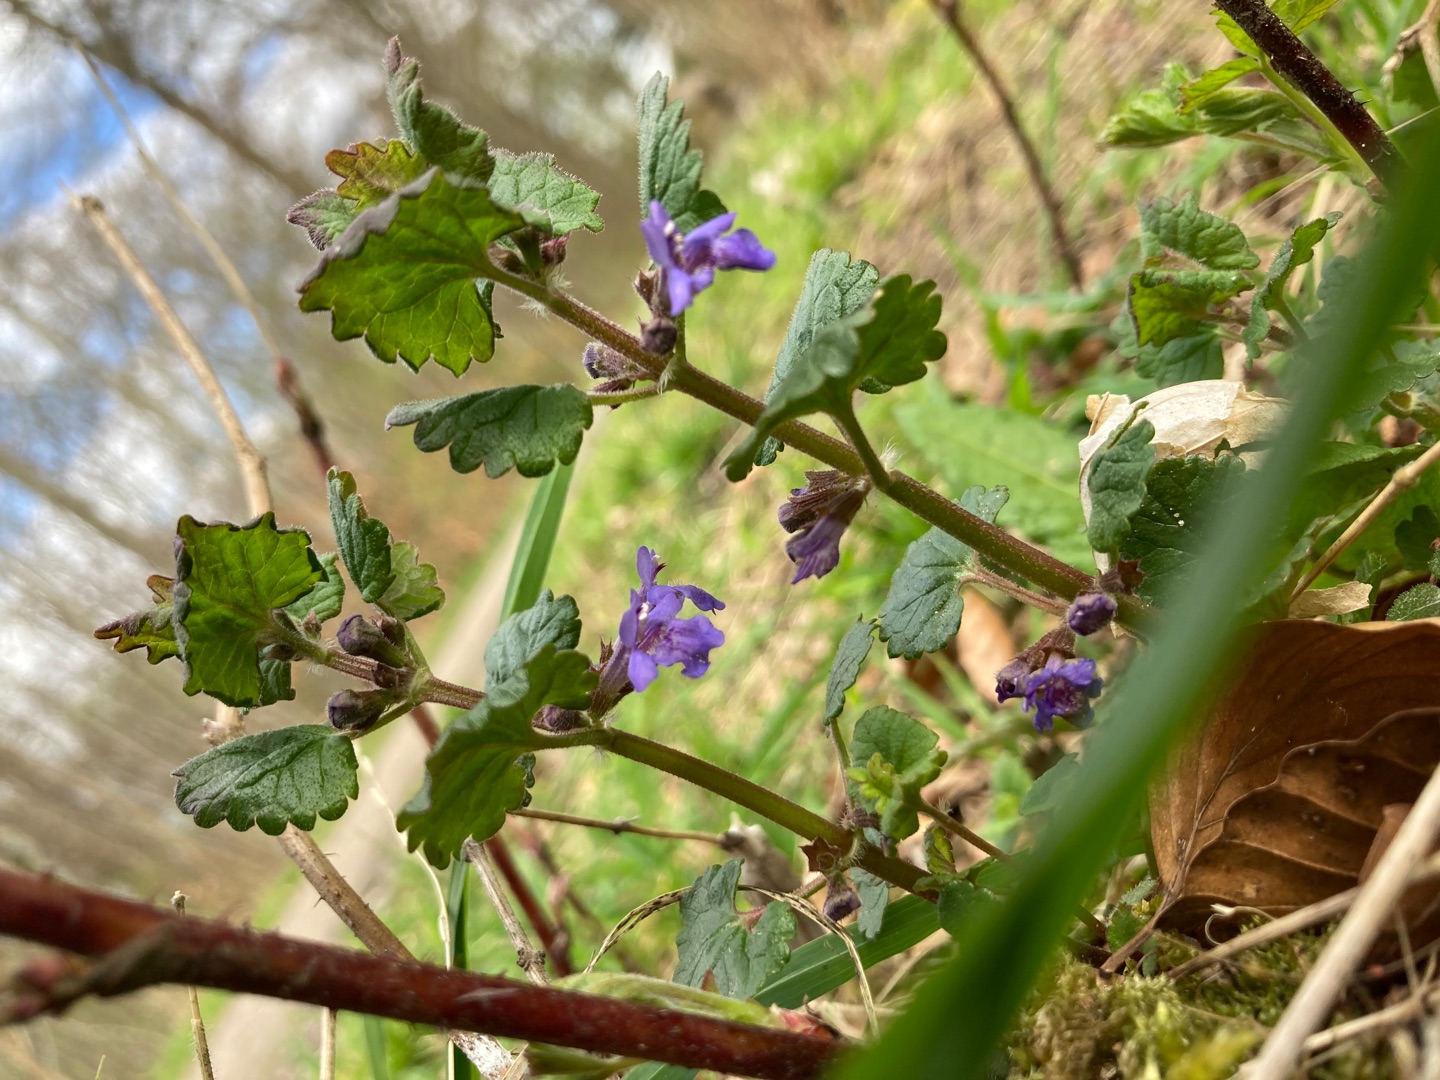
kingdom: Plantae
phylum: Tracheophyta
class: Magnoliopsida
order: Lamiales
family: Lamiaceae
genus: Glechoma
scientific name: Glechoma hederacea
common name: Korsknap
